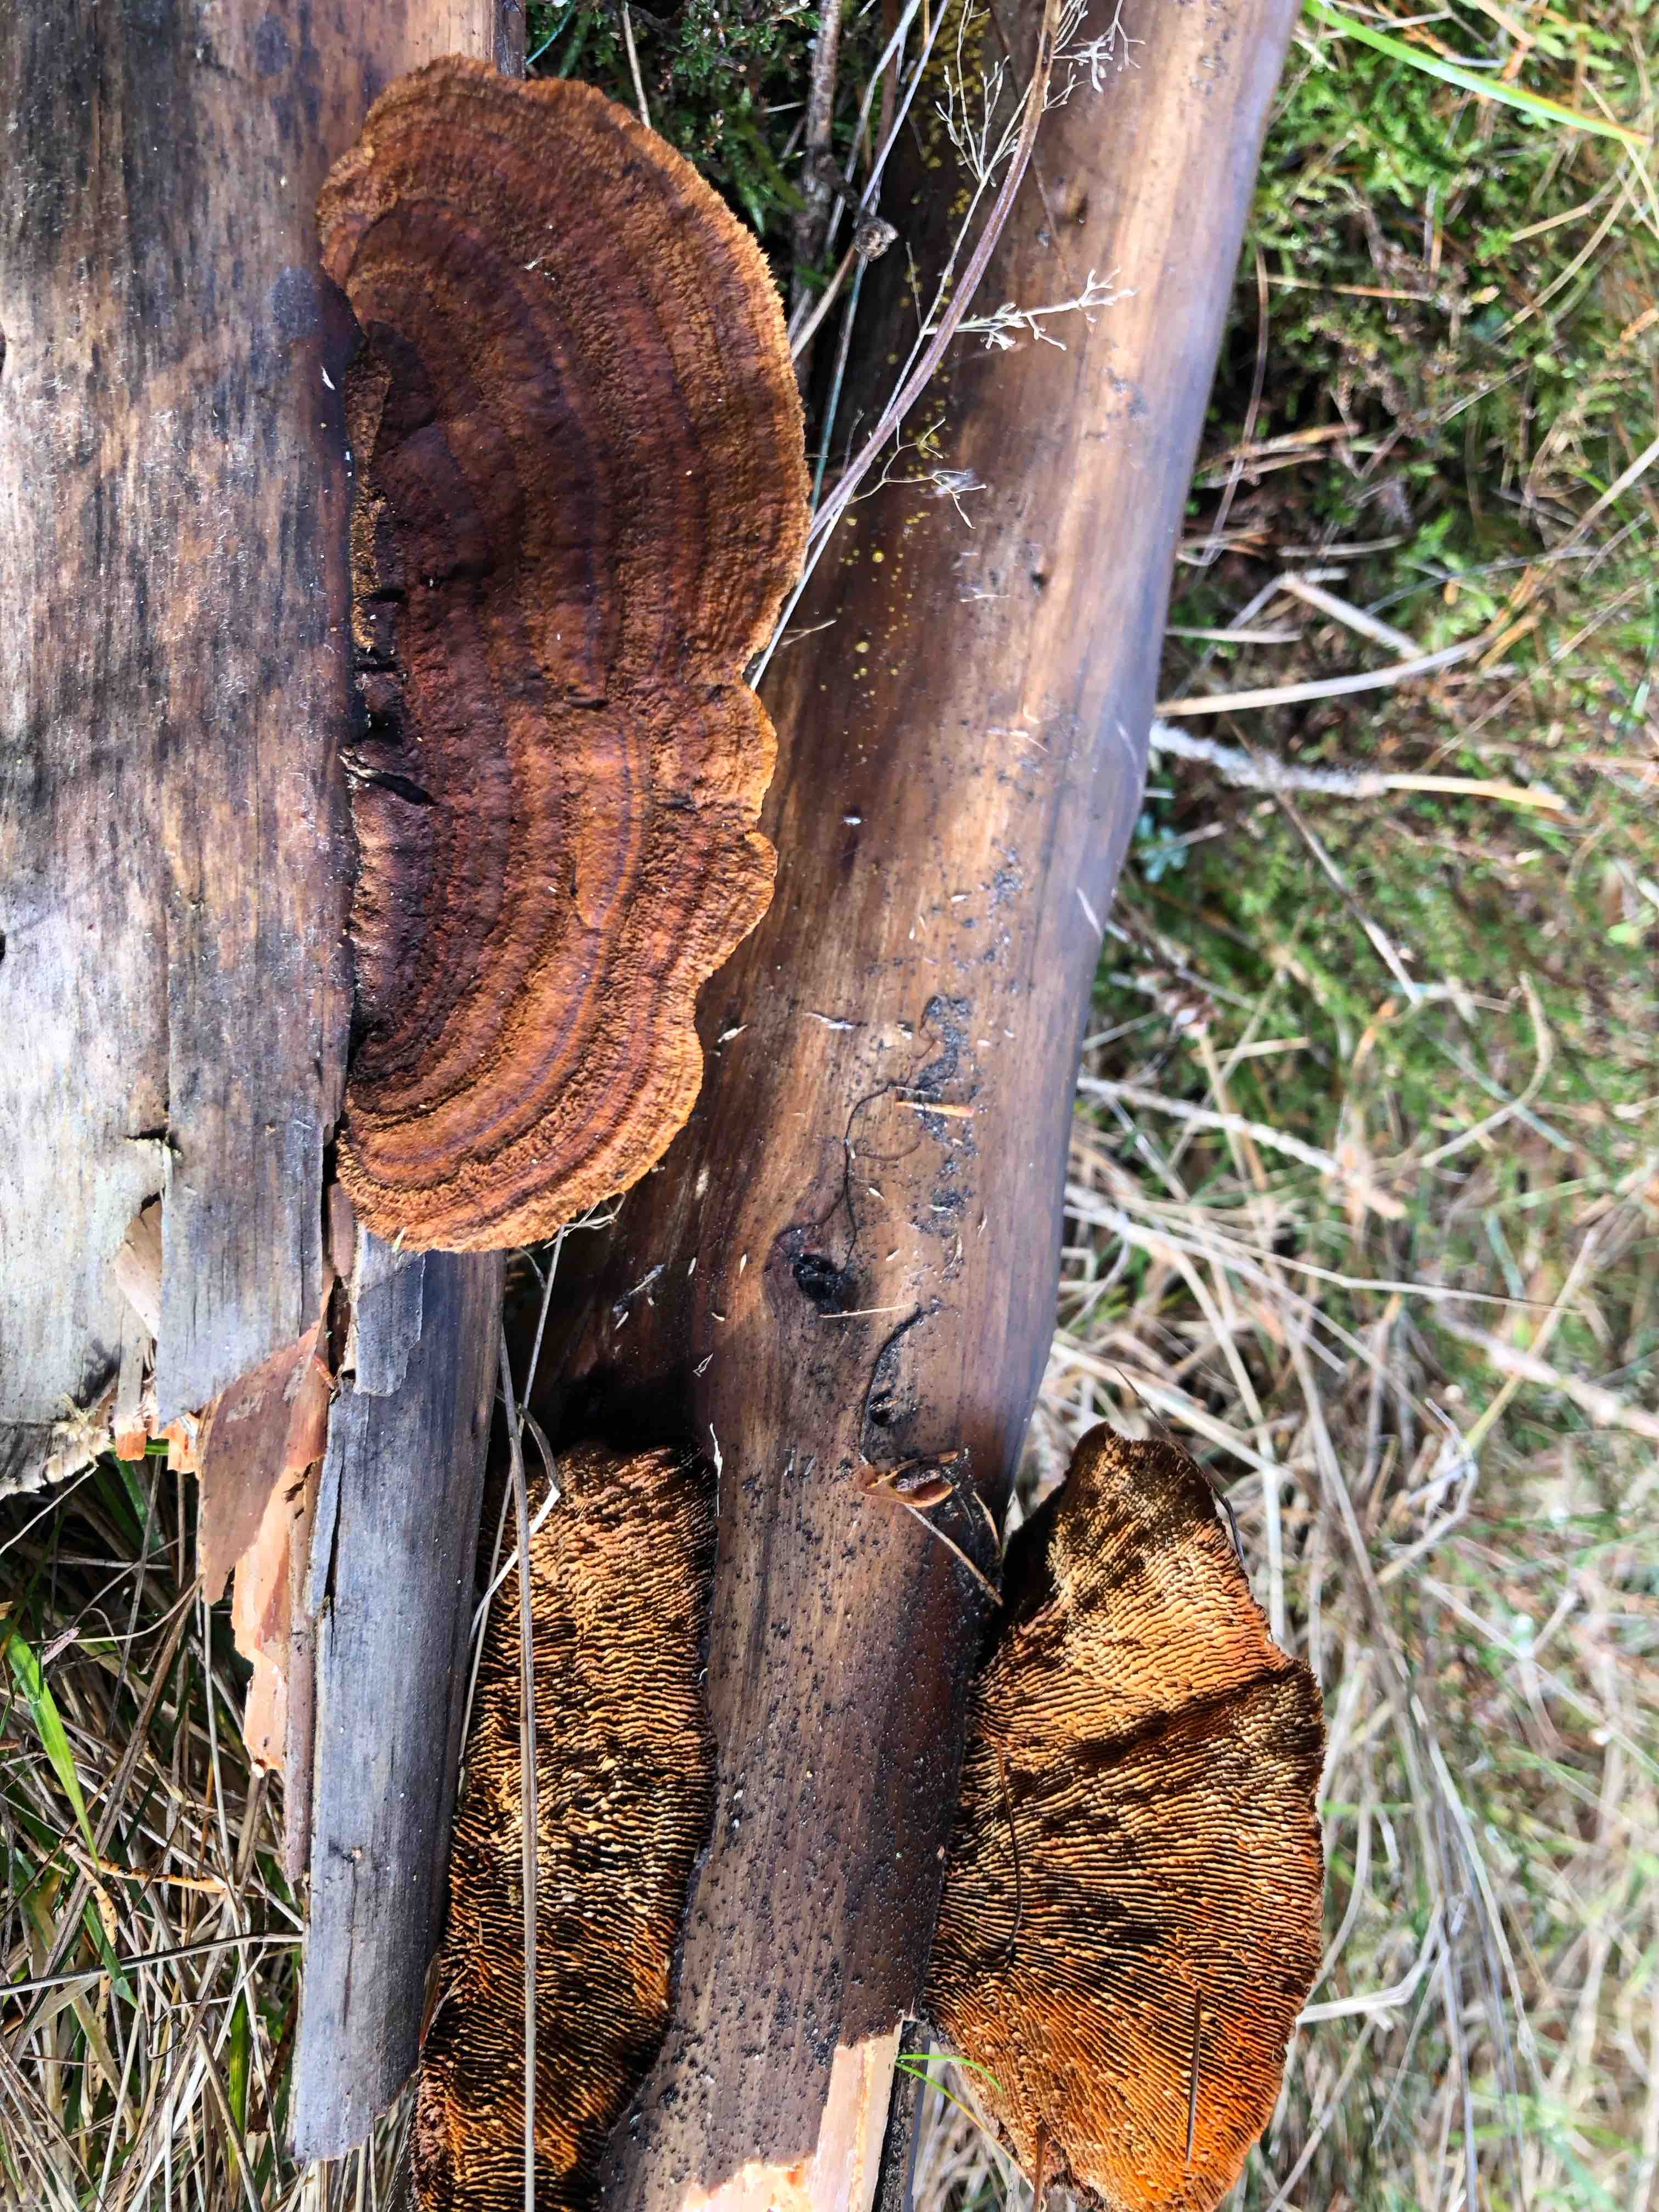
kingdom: Fungi
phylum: Basidiomycota
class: Agaricomycetes
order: Gloeophyllales
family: Gloeophyllaceae
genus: Gloeophyllum
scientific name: Gloeophyllum sepiarium
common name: fyrre-korkhat
